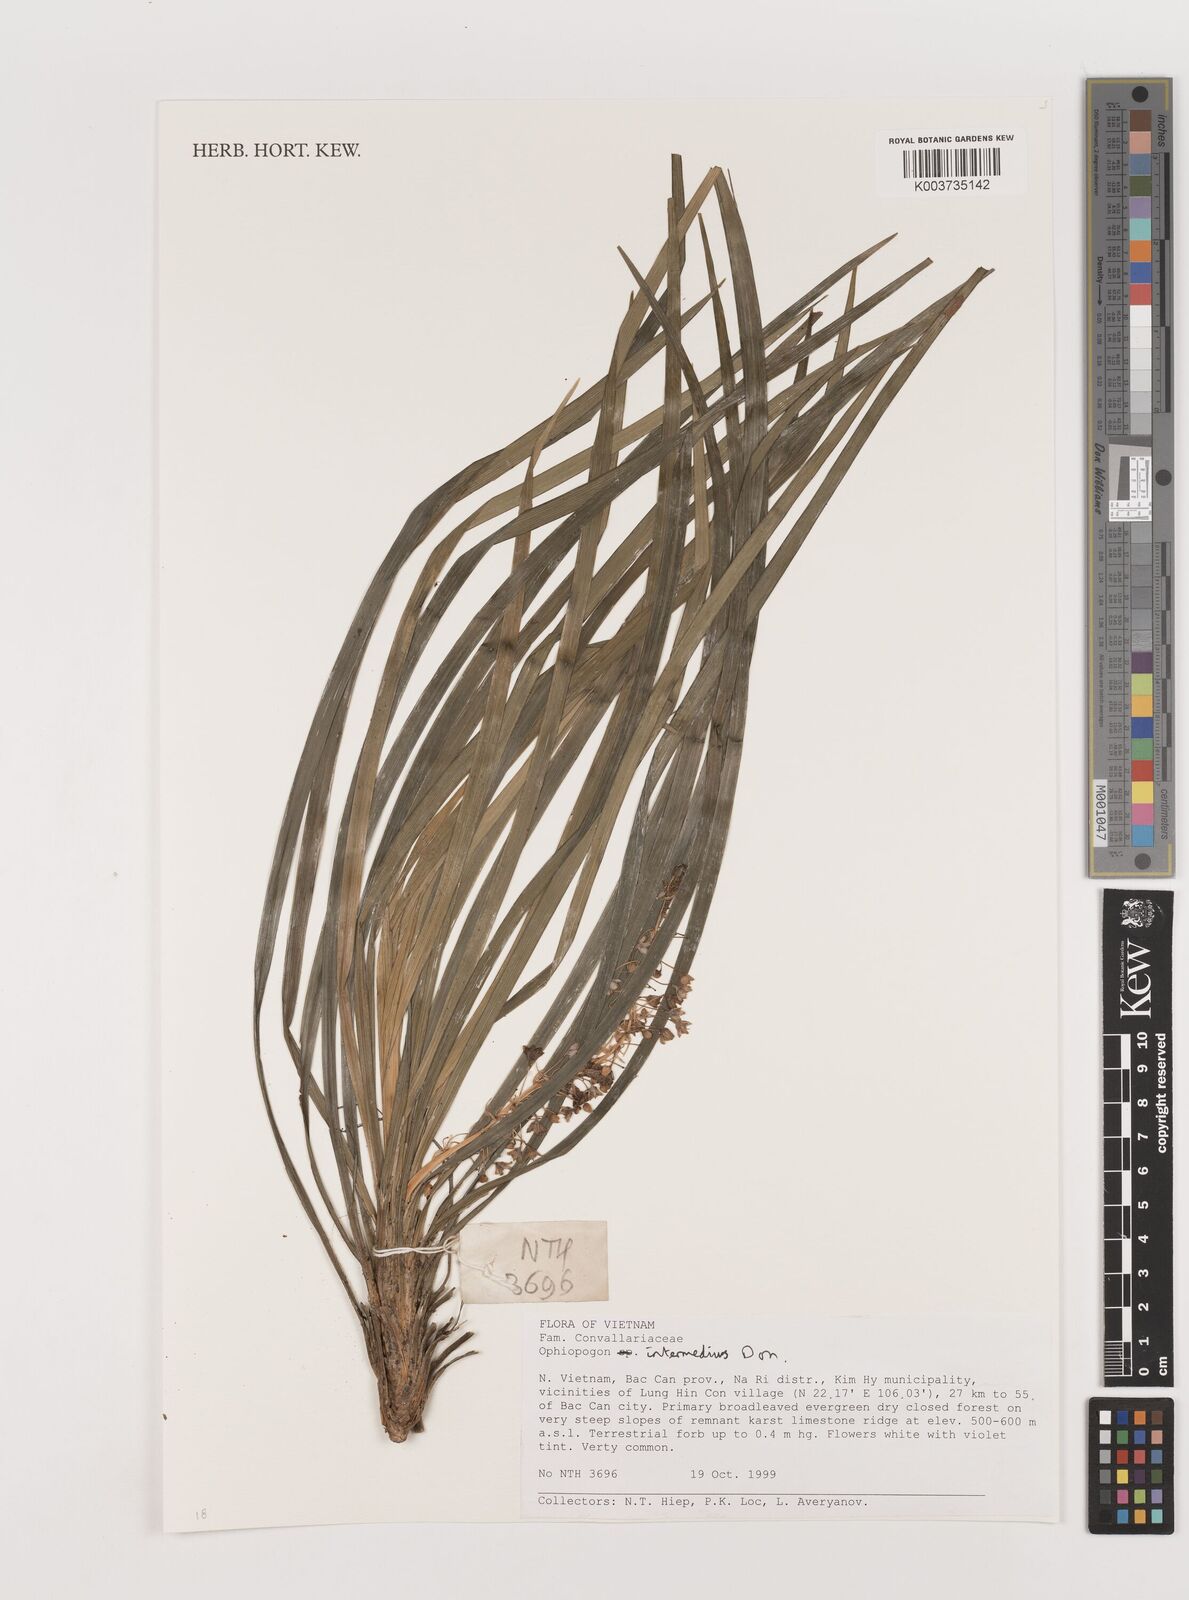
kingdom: Plantae
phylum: Tracheophyta
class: Liliopsida
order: Asparagales
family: Asparagaceae
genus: Ophiopogon
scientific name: Ophiopogon intermedius
